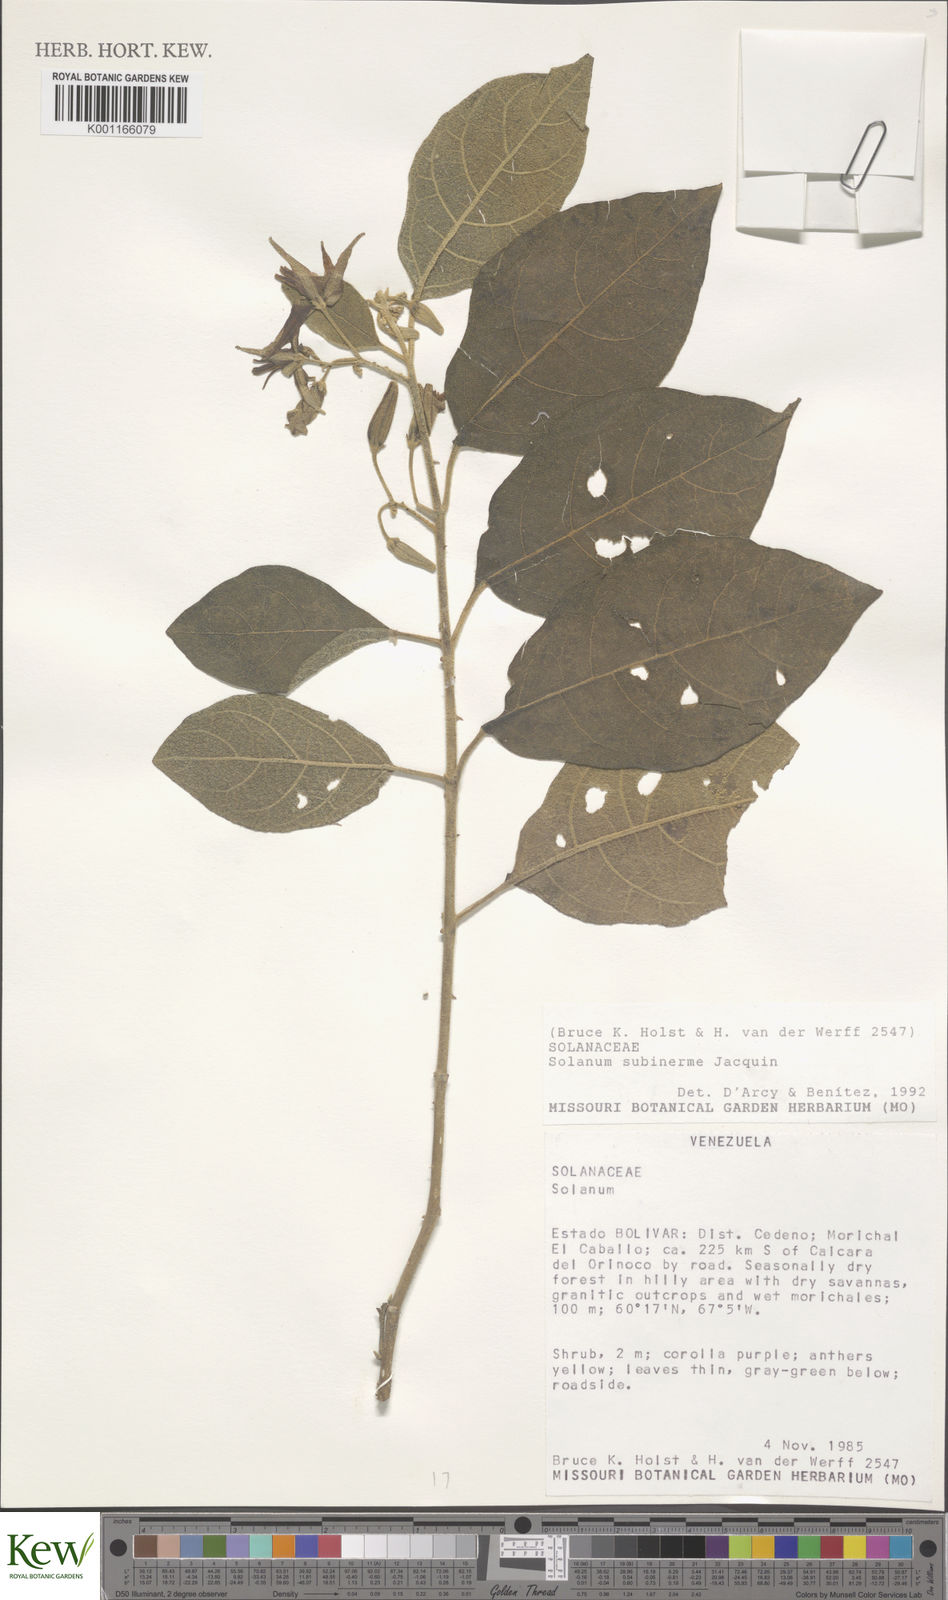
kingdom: Plantae
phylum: Tracheophyta
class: Magnoliopsida
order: Solanales
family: Solanaceae
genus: Solanum
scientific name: Solanum subinerme
